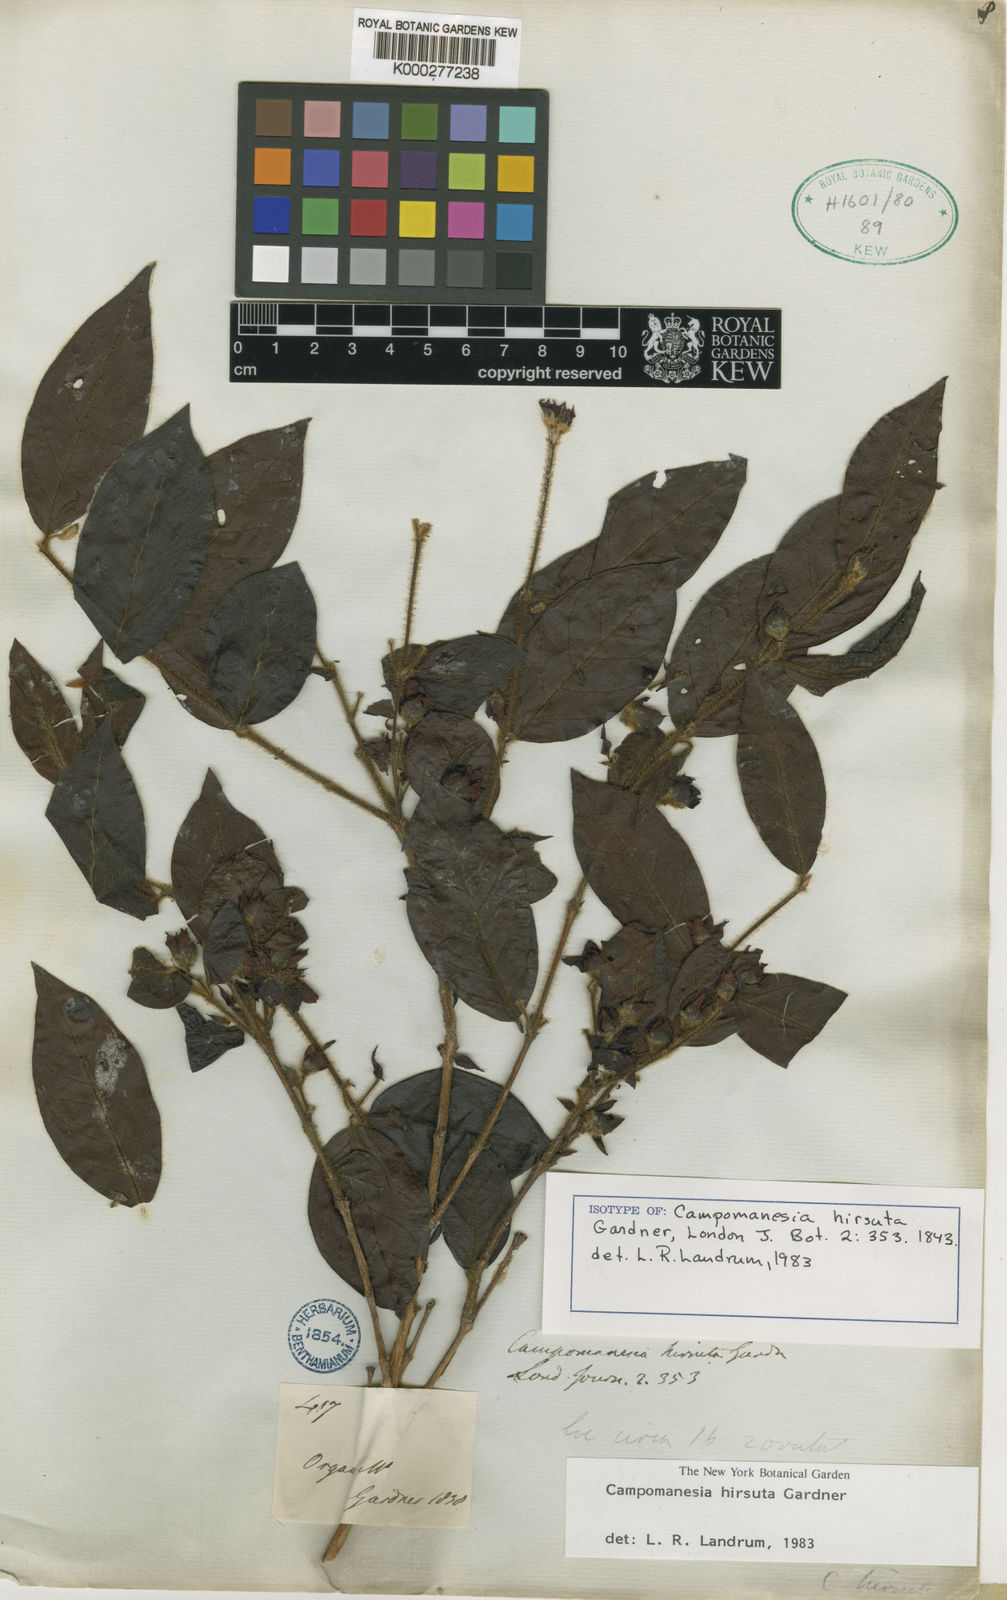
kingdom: Plantae
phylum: Tracheophyta
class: Magnoliopsida
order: Myrtales
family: Myrtaceae
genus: Campomanesia
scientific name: Campomanesia hirsuta
